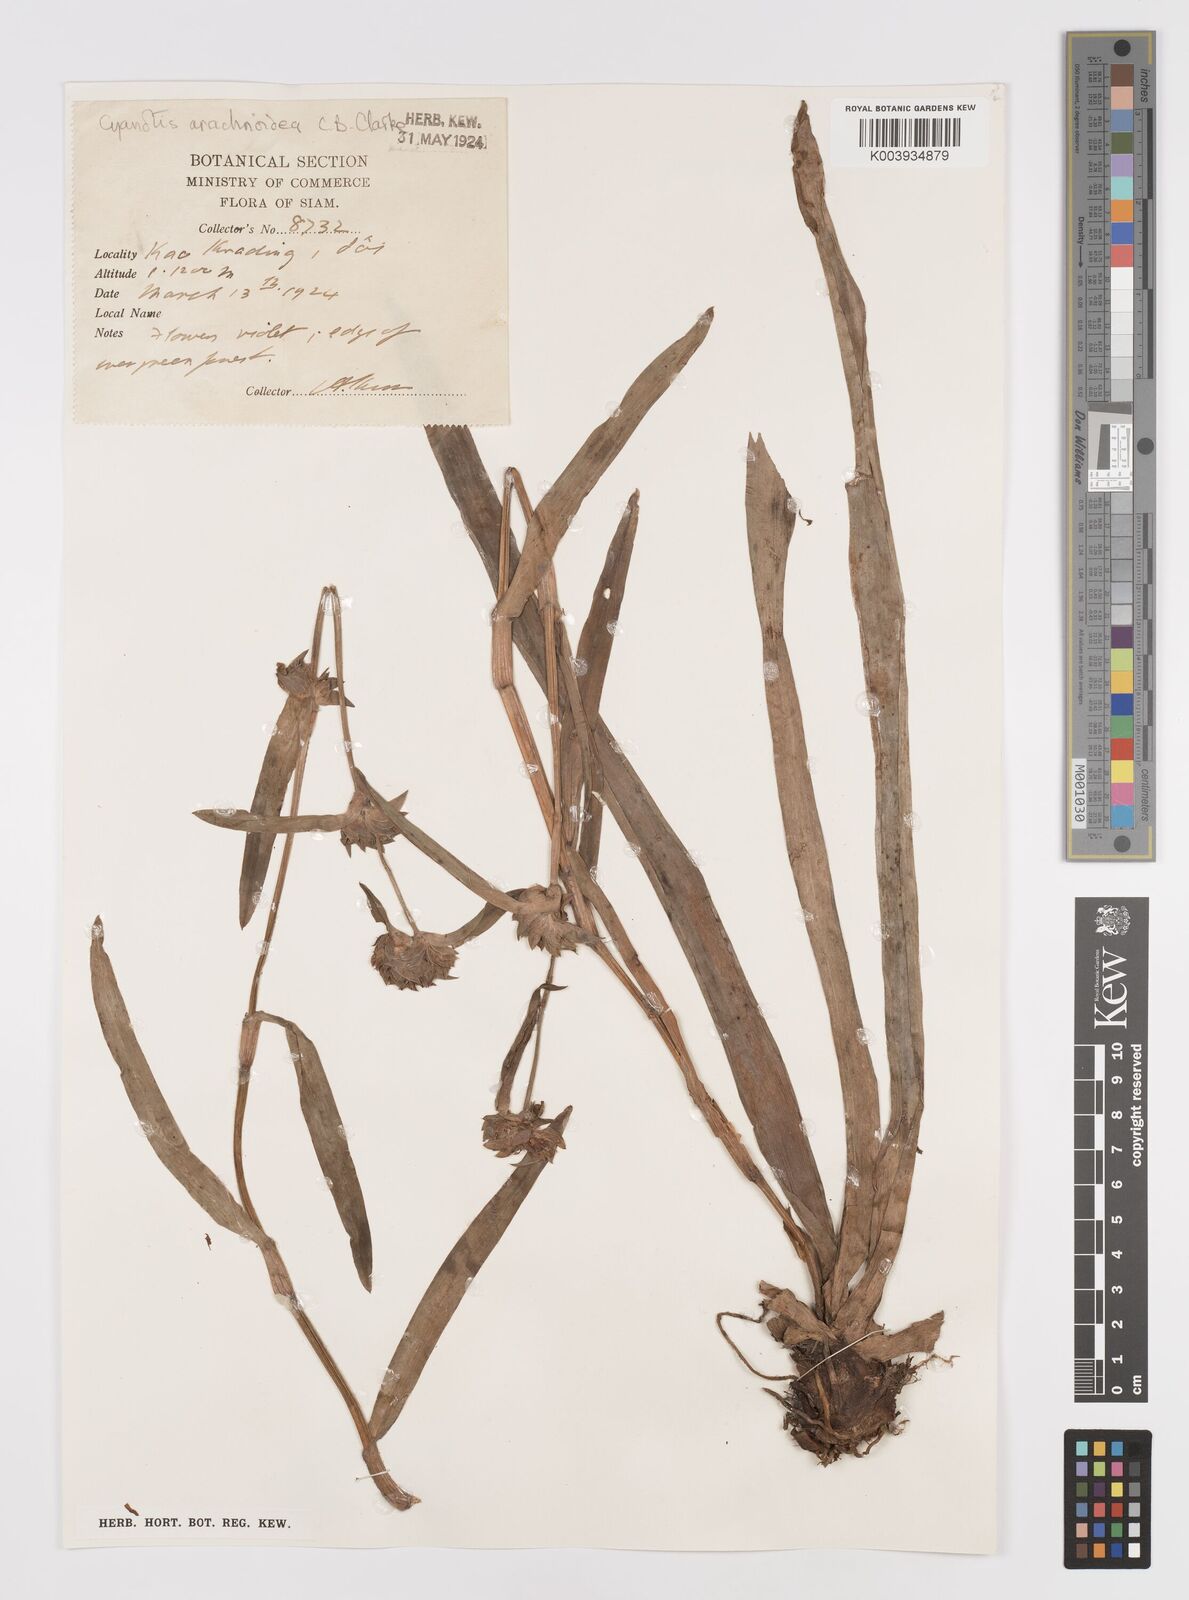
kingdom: Plantae
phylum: Tracheophyta
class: Liliopsida
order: Commelinales
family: Commelinaceae
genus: Cyanotis
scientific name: Cyanotis arachnoidea
